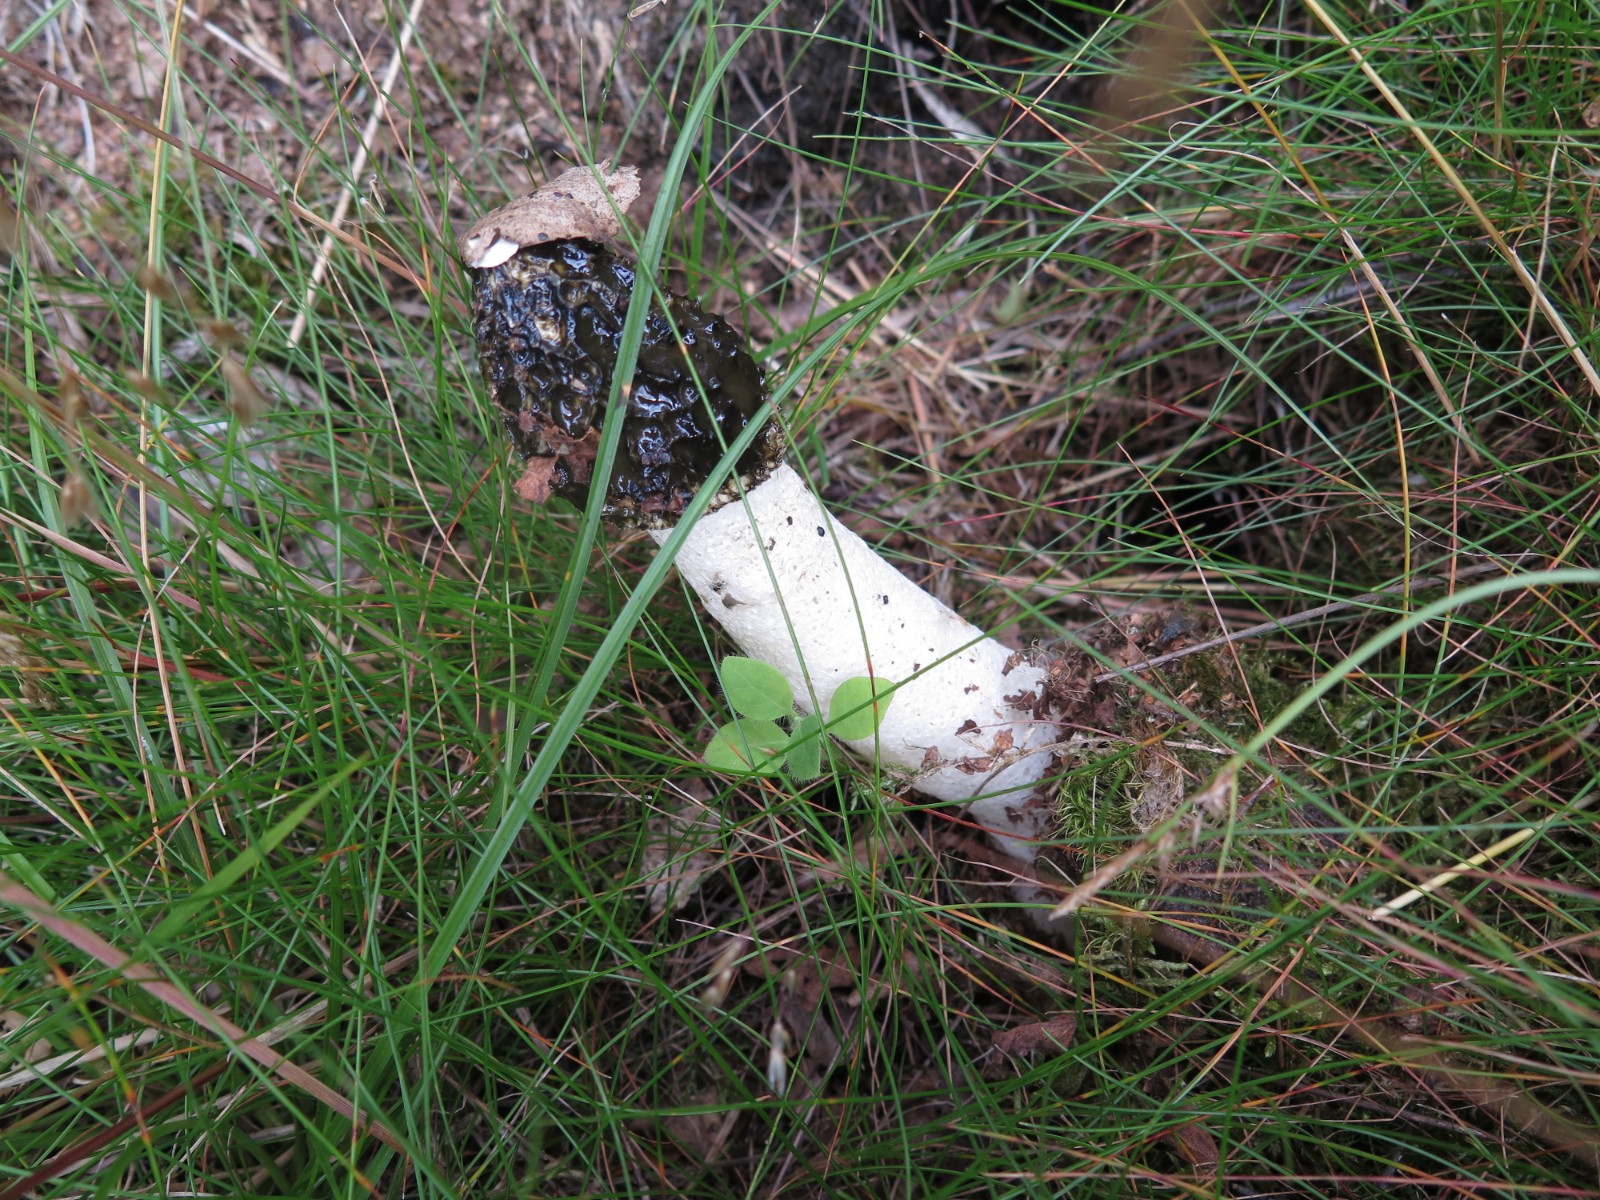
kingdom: Fungi
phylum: Basidiomycota
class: Agaricomycetes
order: Phallales
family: Phallaceae
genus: Phallus
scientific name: Phallus impudicus
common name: almindelig stinksvamp
